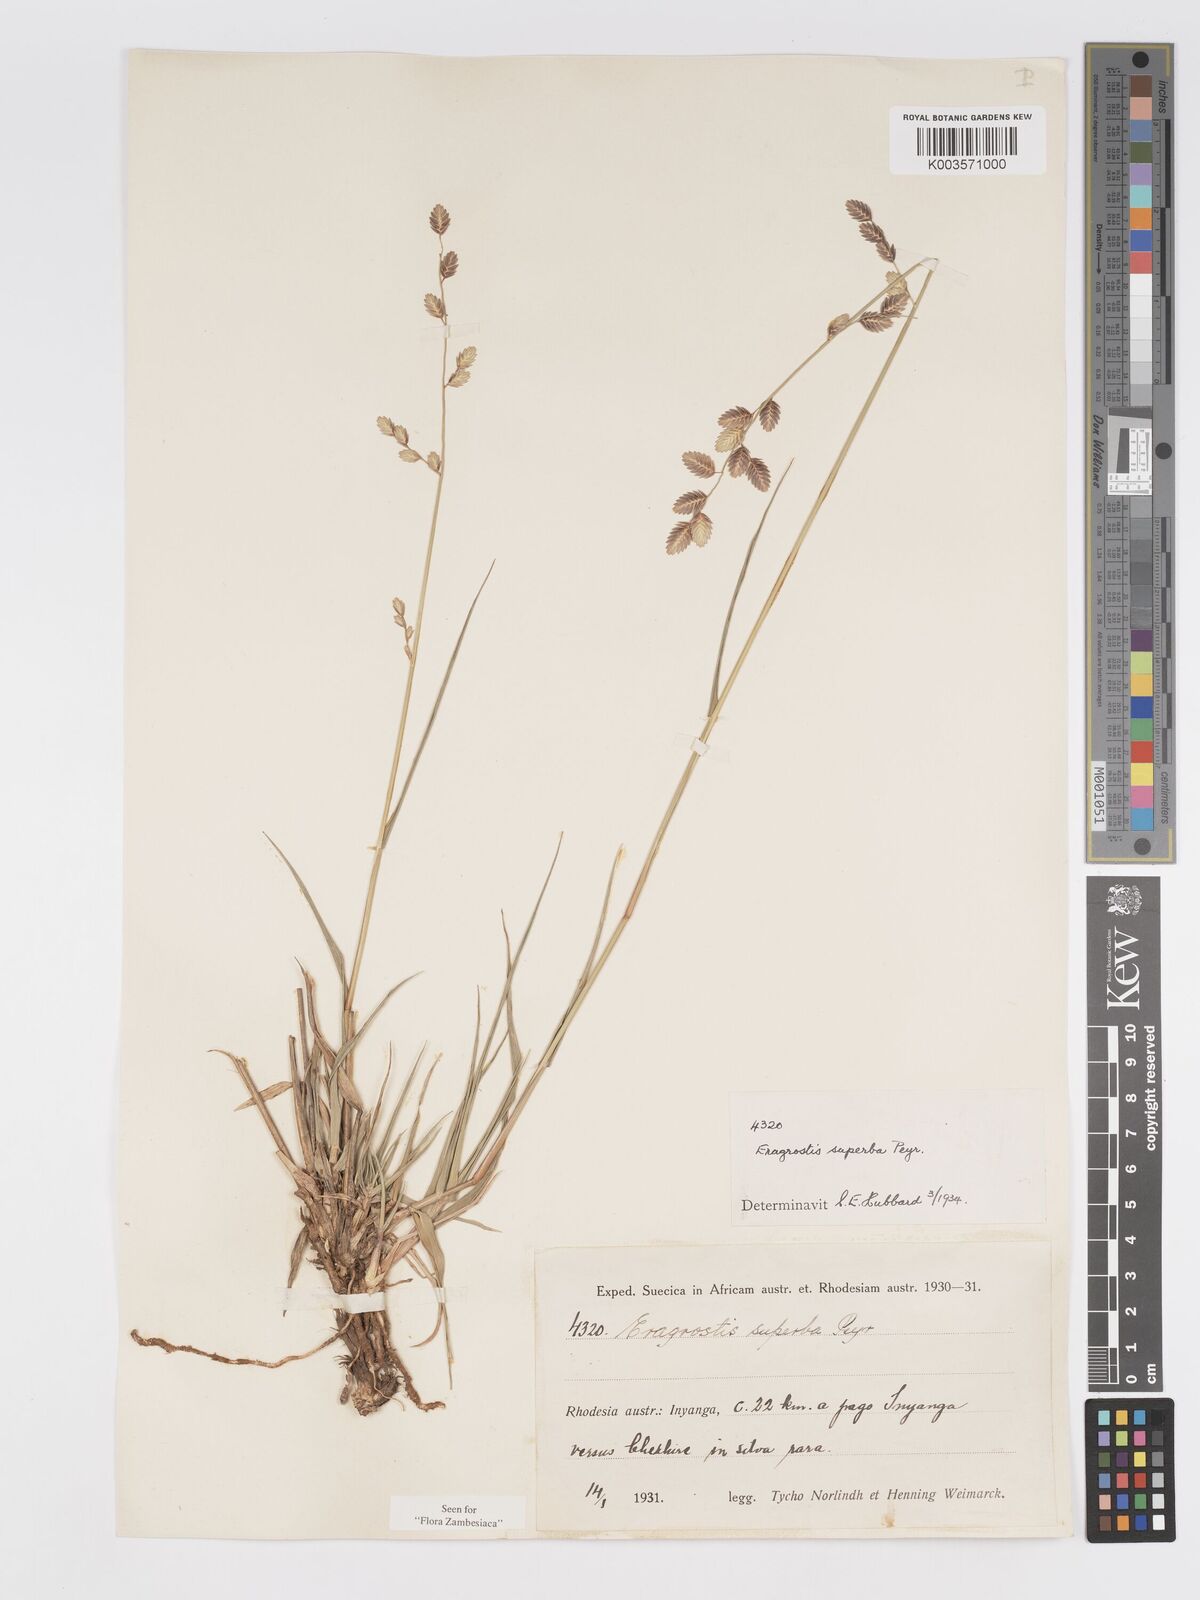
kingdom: Plantae
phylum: Tracheophyta
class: Liliopsida
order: Poales
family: Poaceae
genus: Eragrostis
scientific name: Eragrostis superba
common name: Wilman lovegrass
